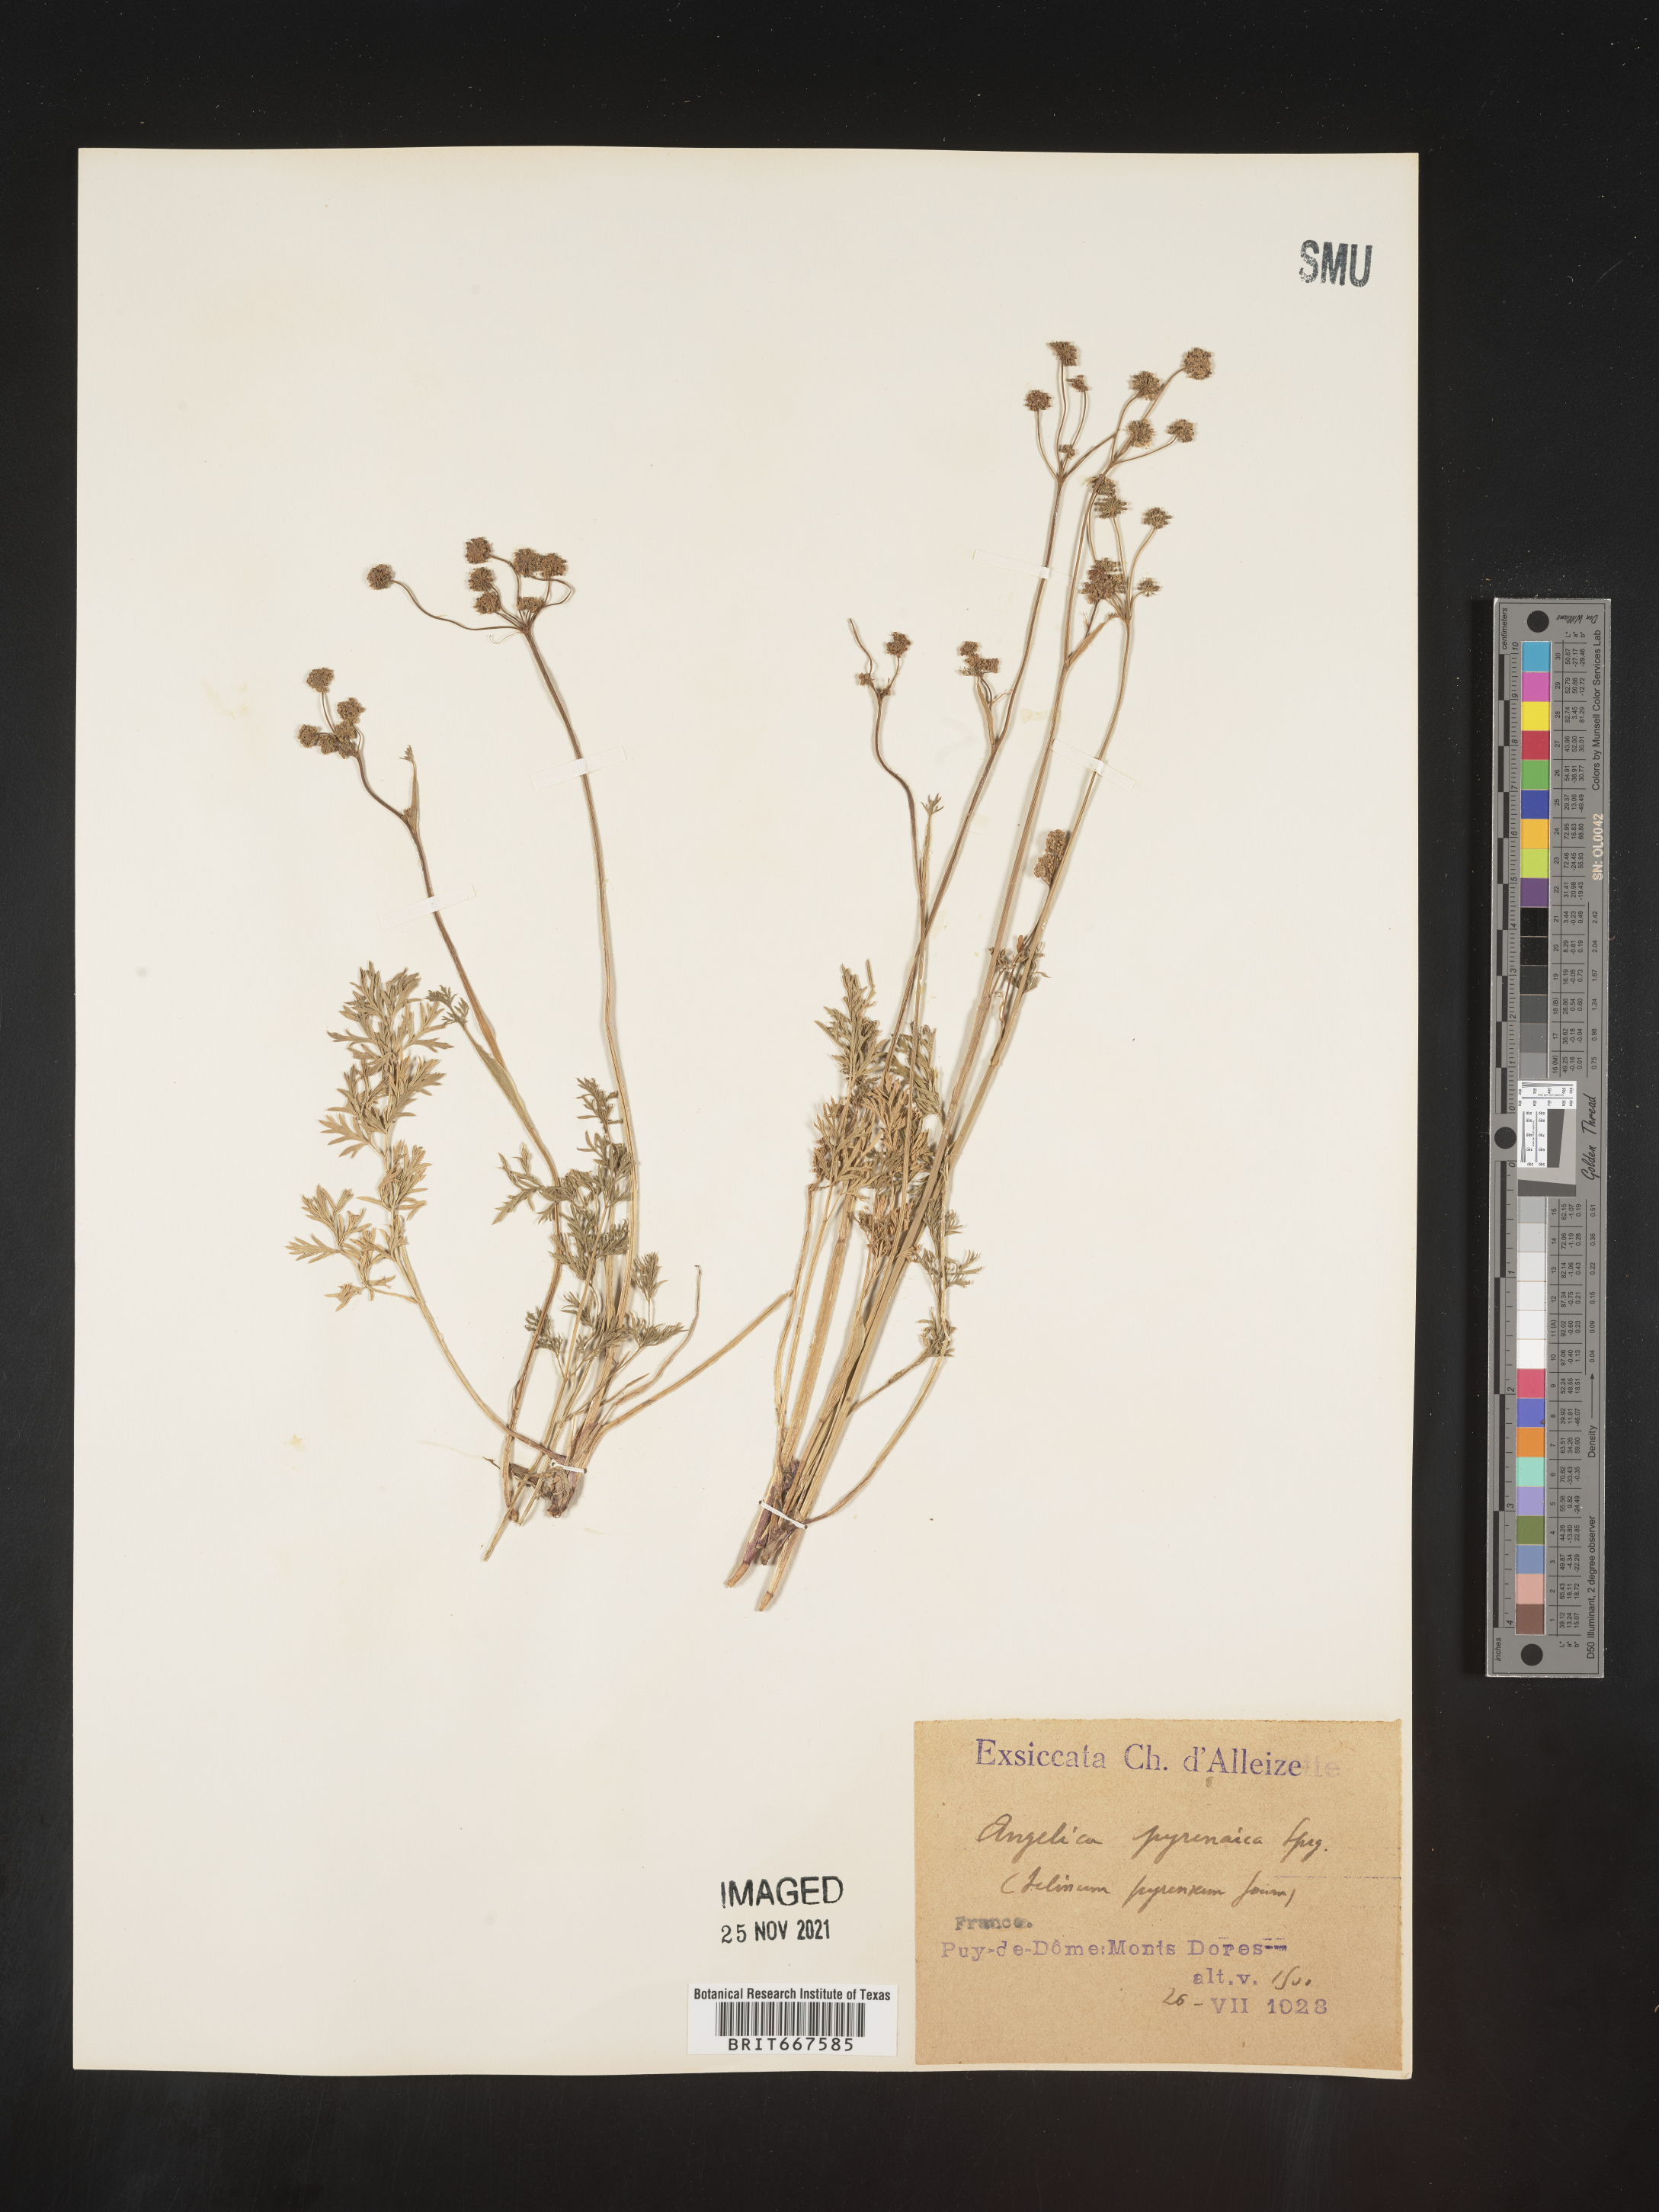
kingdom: Plantae
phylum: Tracheophyta
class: Magnoliopsida
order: Apiales
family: Apiaceae
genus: Angelica
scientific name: Angelica
